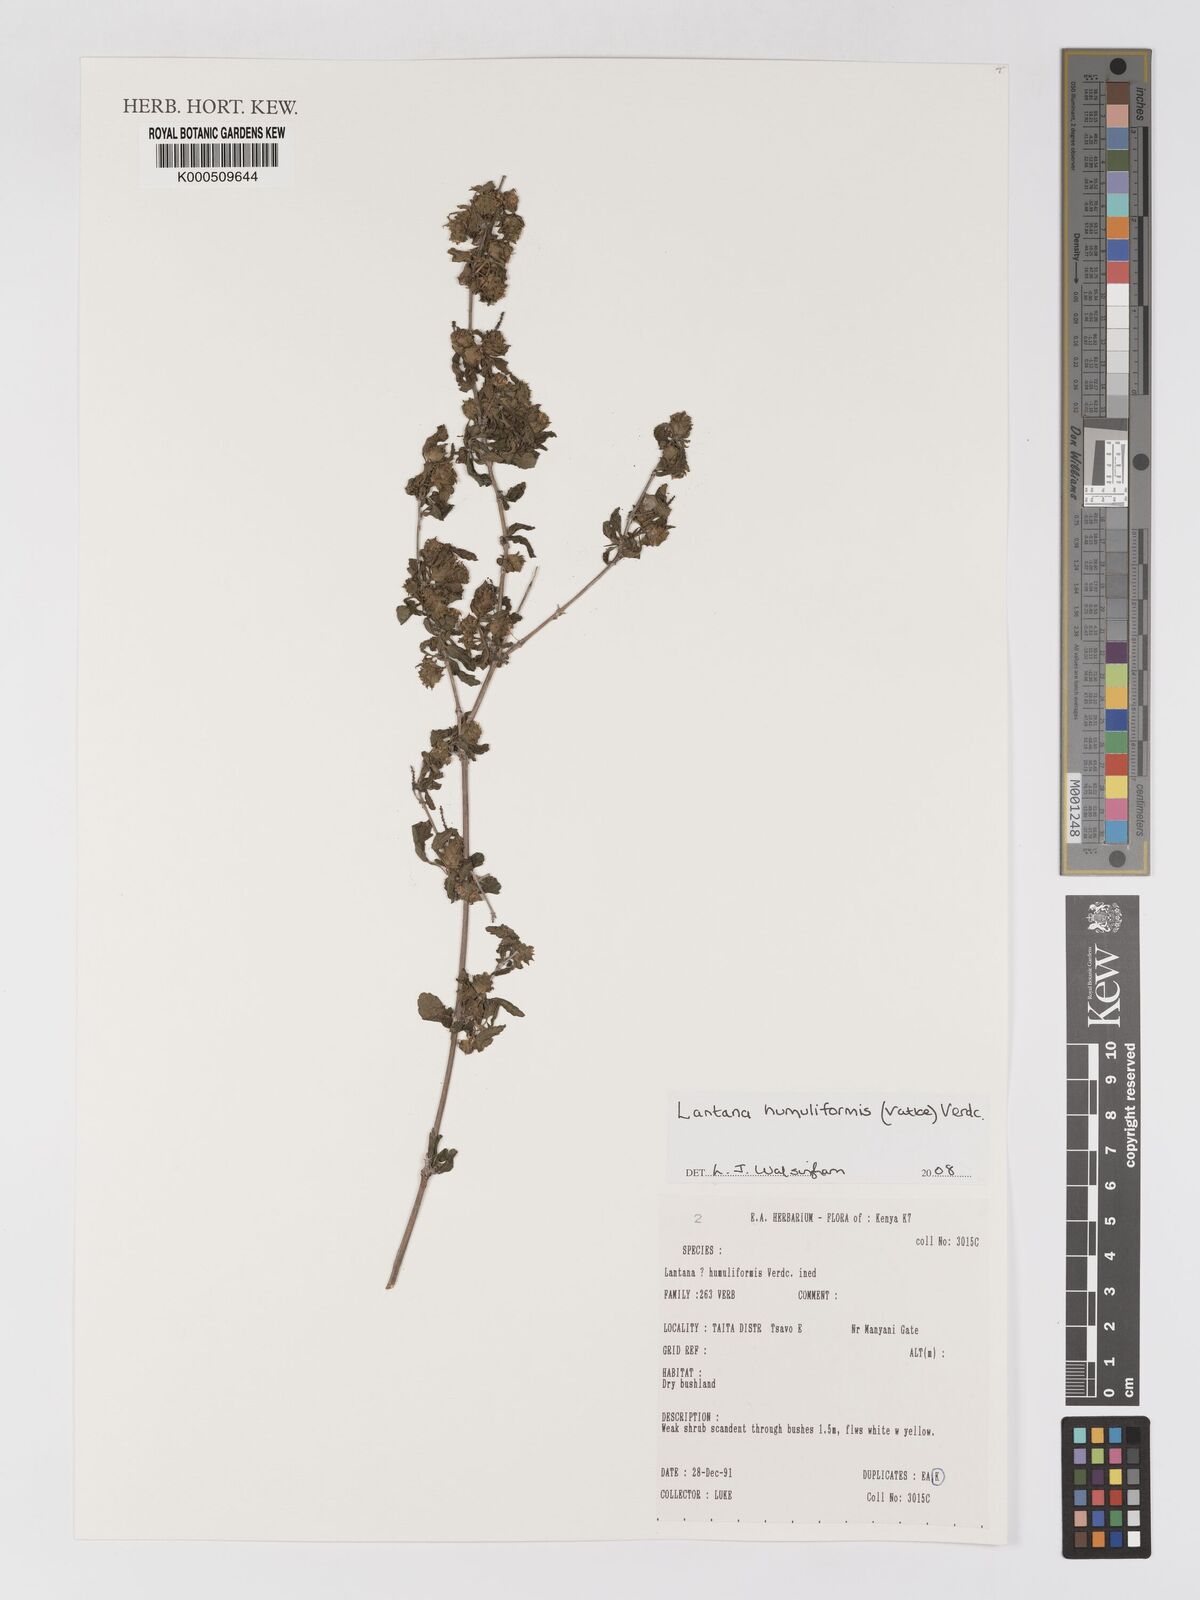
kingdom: Plantae
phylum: Tracheophyta
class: Magnoliopsida
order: Lamiales
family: Verbenaceae
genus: Lantana
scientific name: Lantana humuliformis
